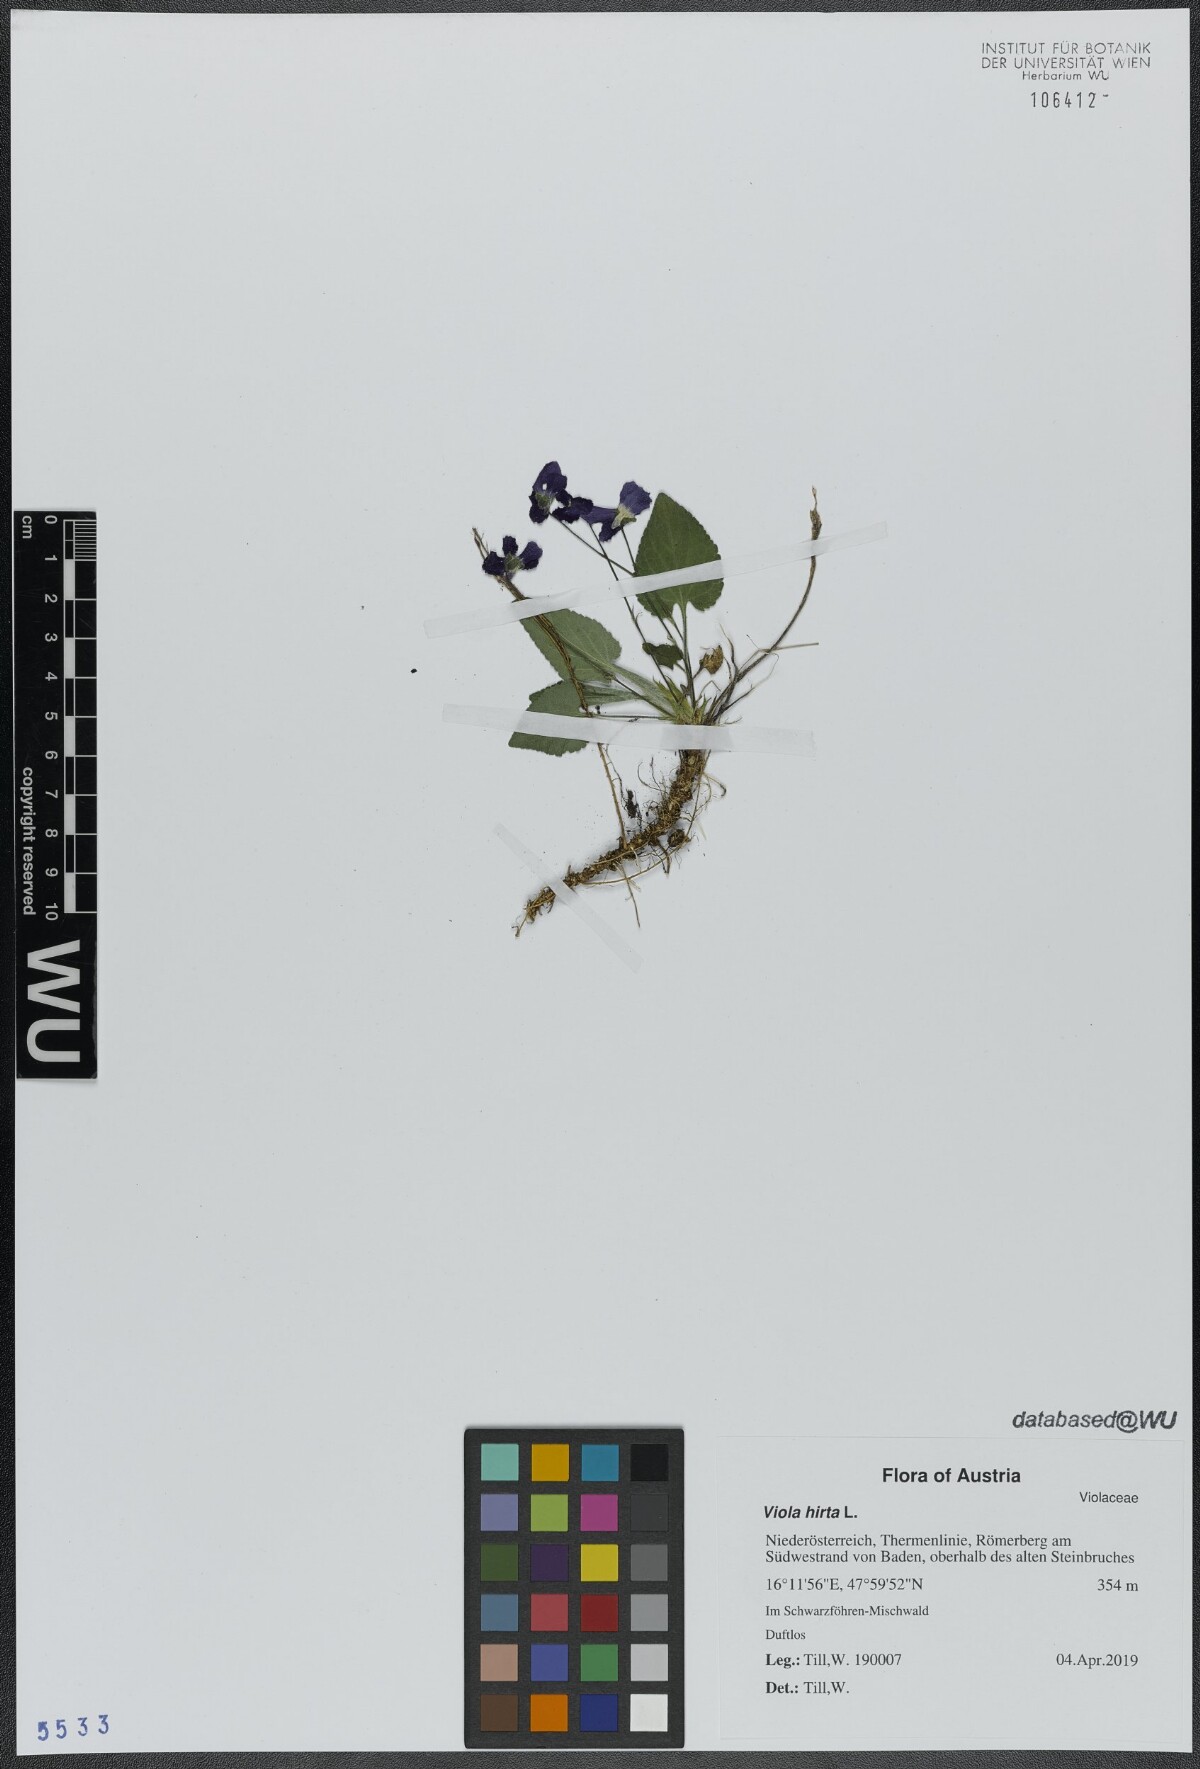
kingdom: Plantae
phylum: Tracheophyta
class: Magnoliopsida
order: Malpighiales
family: Violaceae
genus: Viola
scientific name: Viola hirta
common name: Hairy violet
